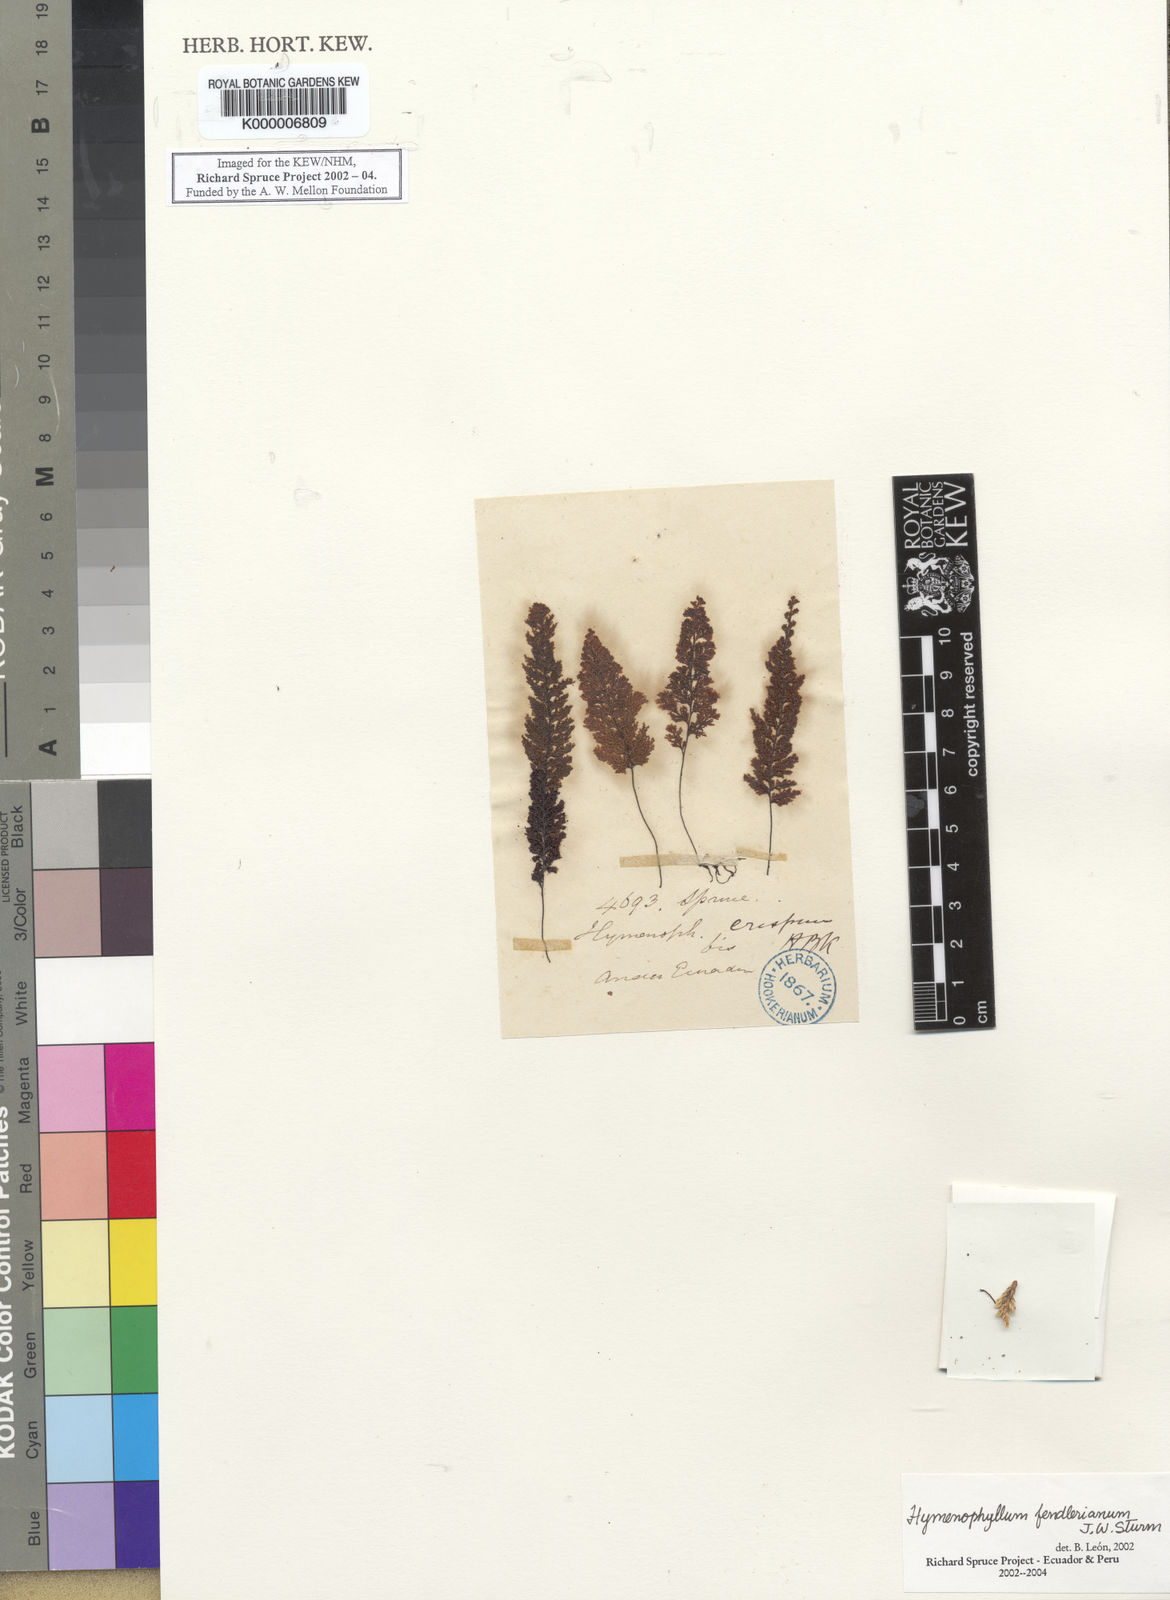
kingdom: Plantae
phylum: Tracheophyta
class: Polypodiopsida
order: Hymenophyllales
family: Hymenophyllaceae
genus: Hymenophyllum
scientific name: Hymenophyllum
